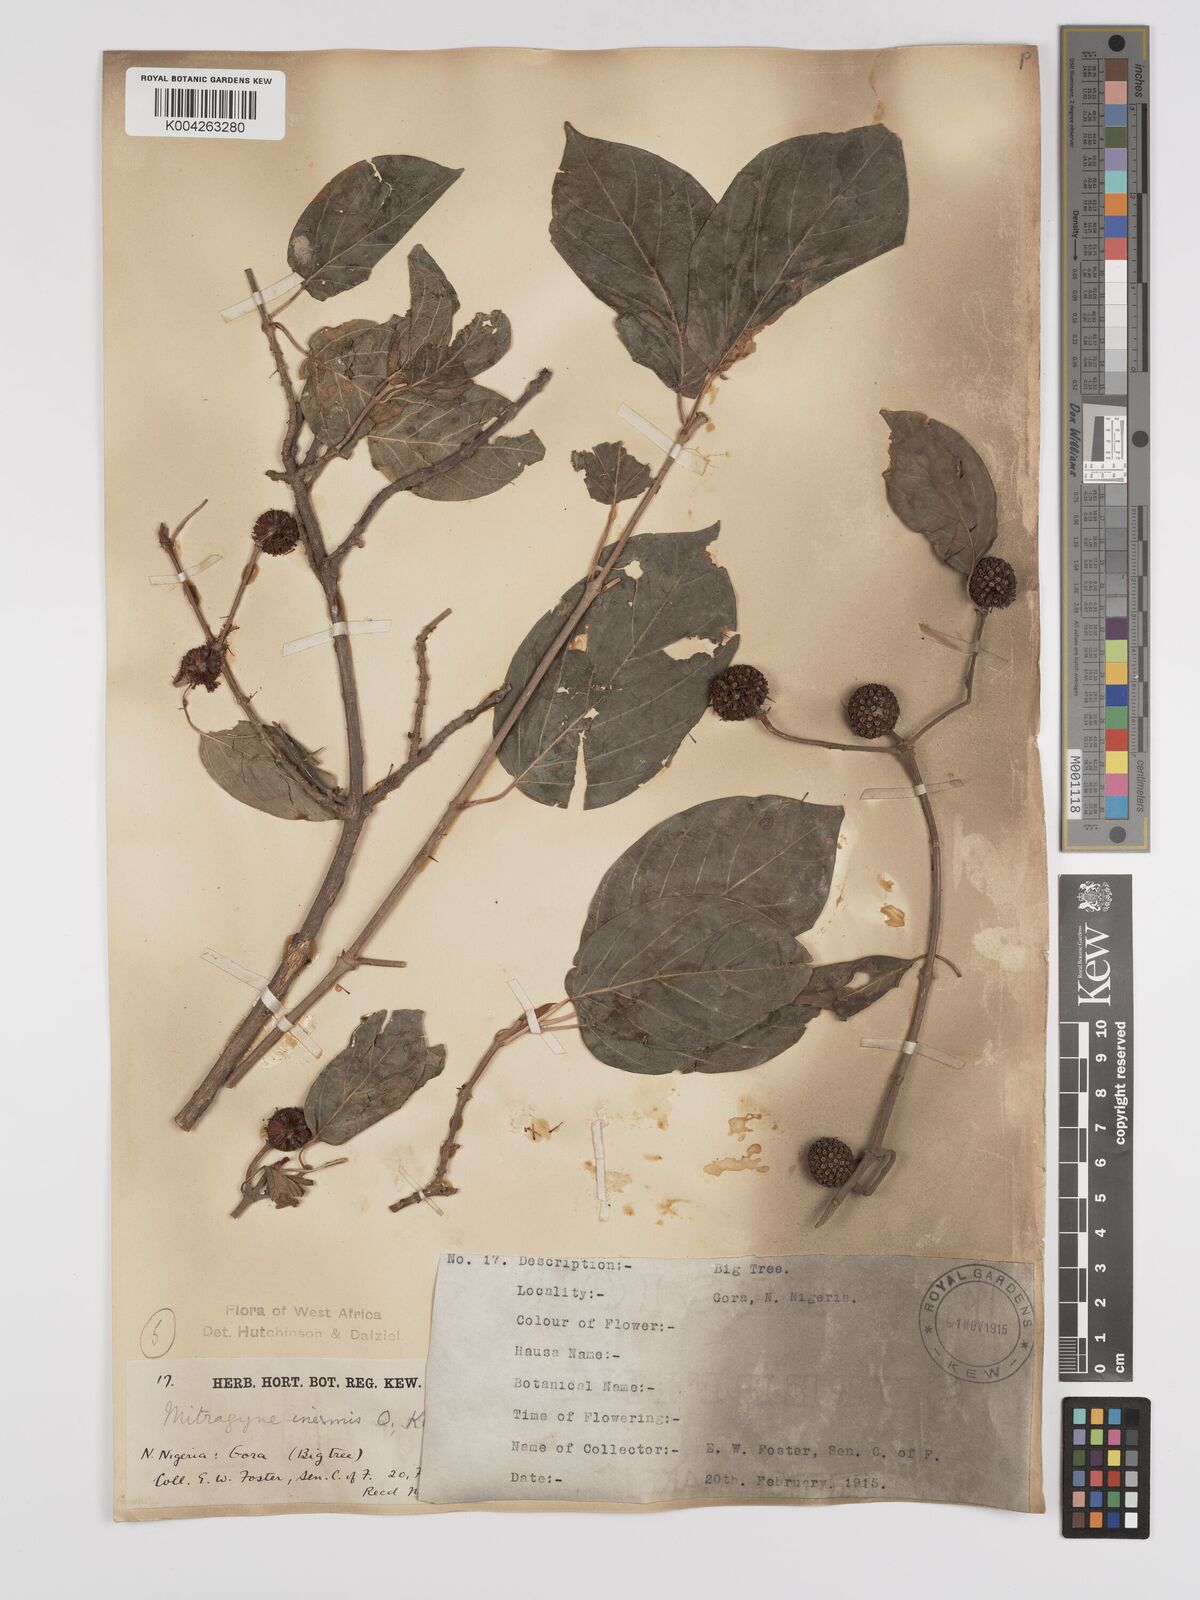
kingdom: Plantae
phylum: Tracheophyta
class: Magnoliopsida
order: Gentianales
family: Rubiaceae
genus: Mitragyna
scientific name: Mitragyna inermis
